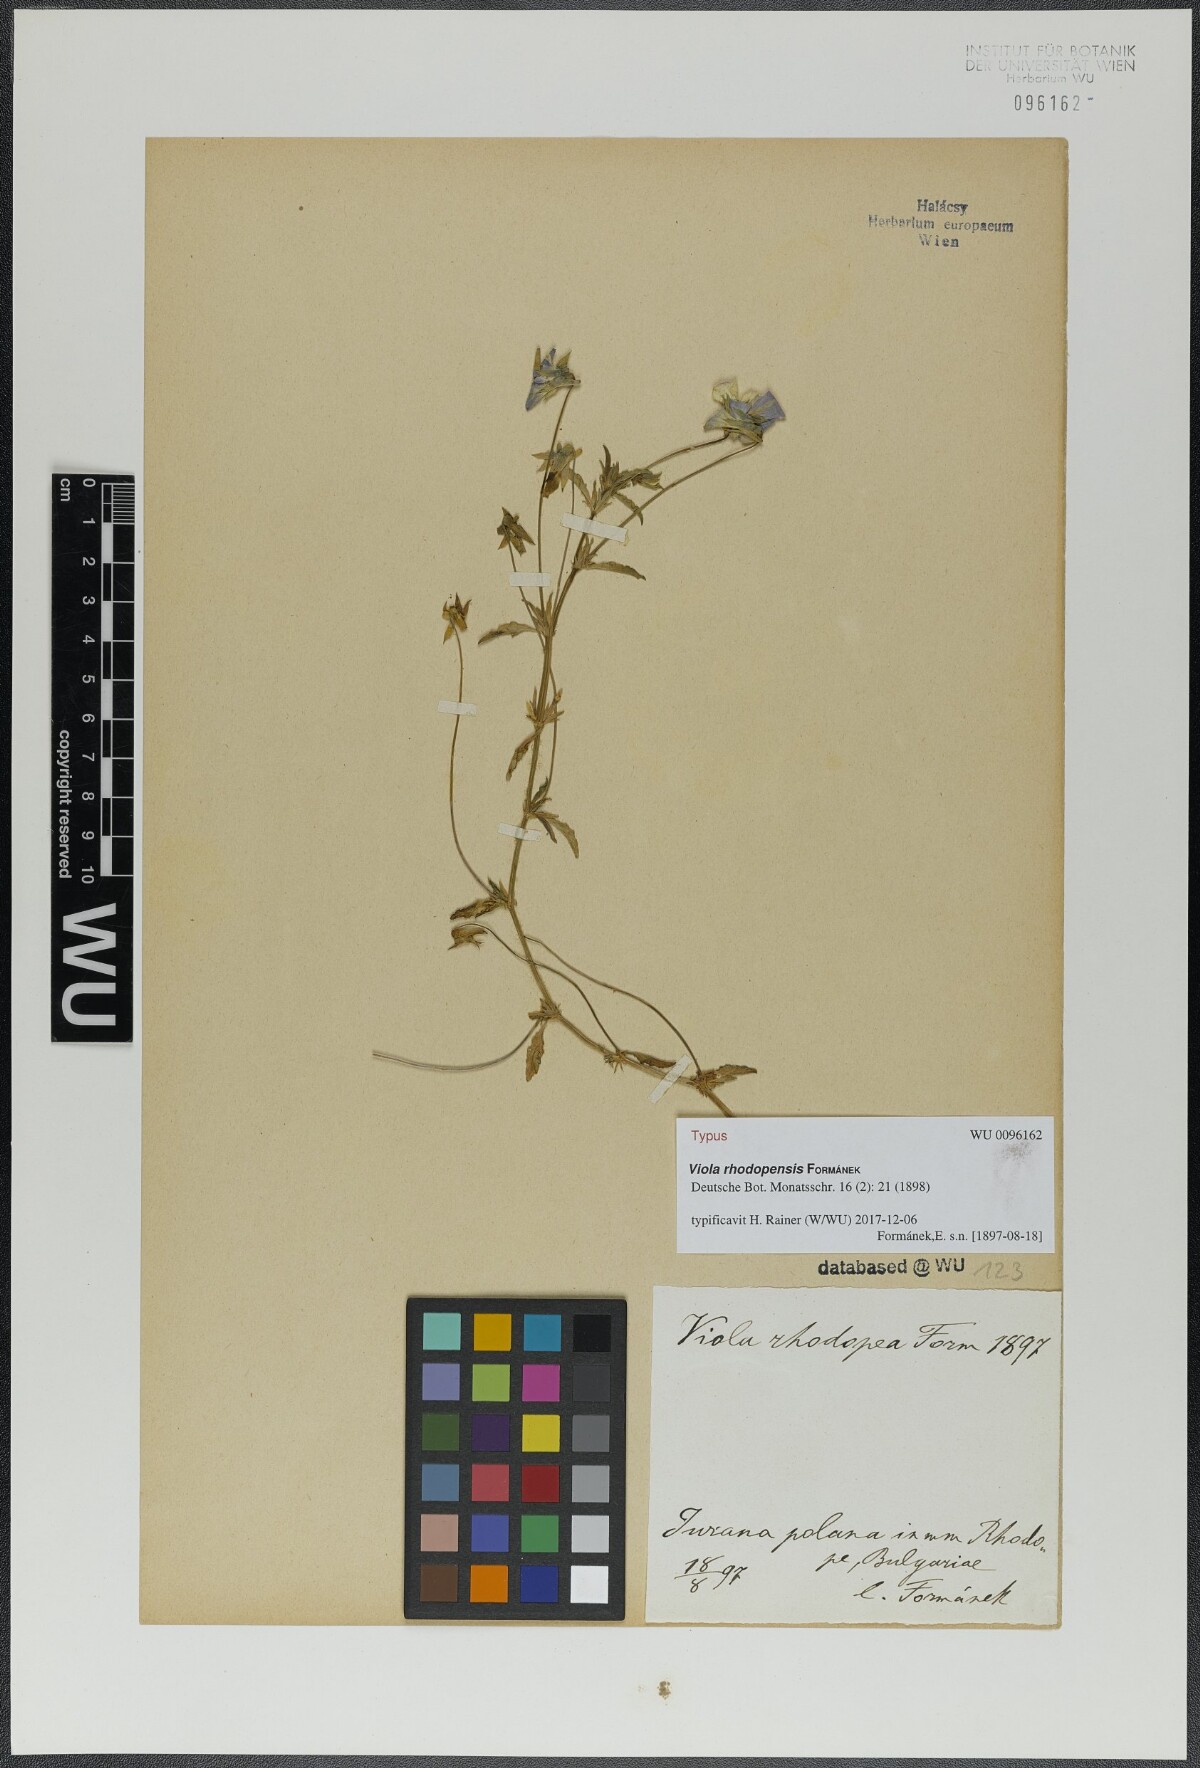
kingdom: Plantae
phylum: Tracheophyta
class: Magnoliopsida
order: Malpighiales
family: Violaceae
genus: Viola
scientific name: Viola rhodopensis
